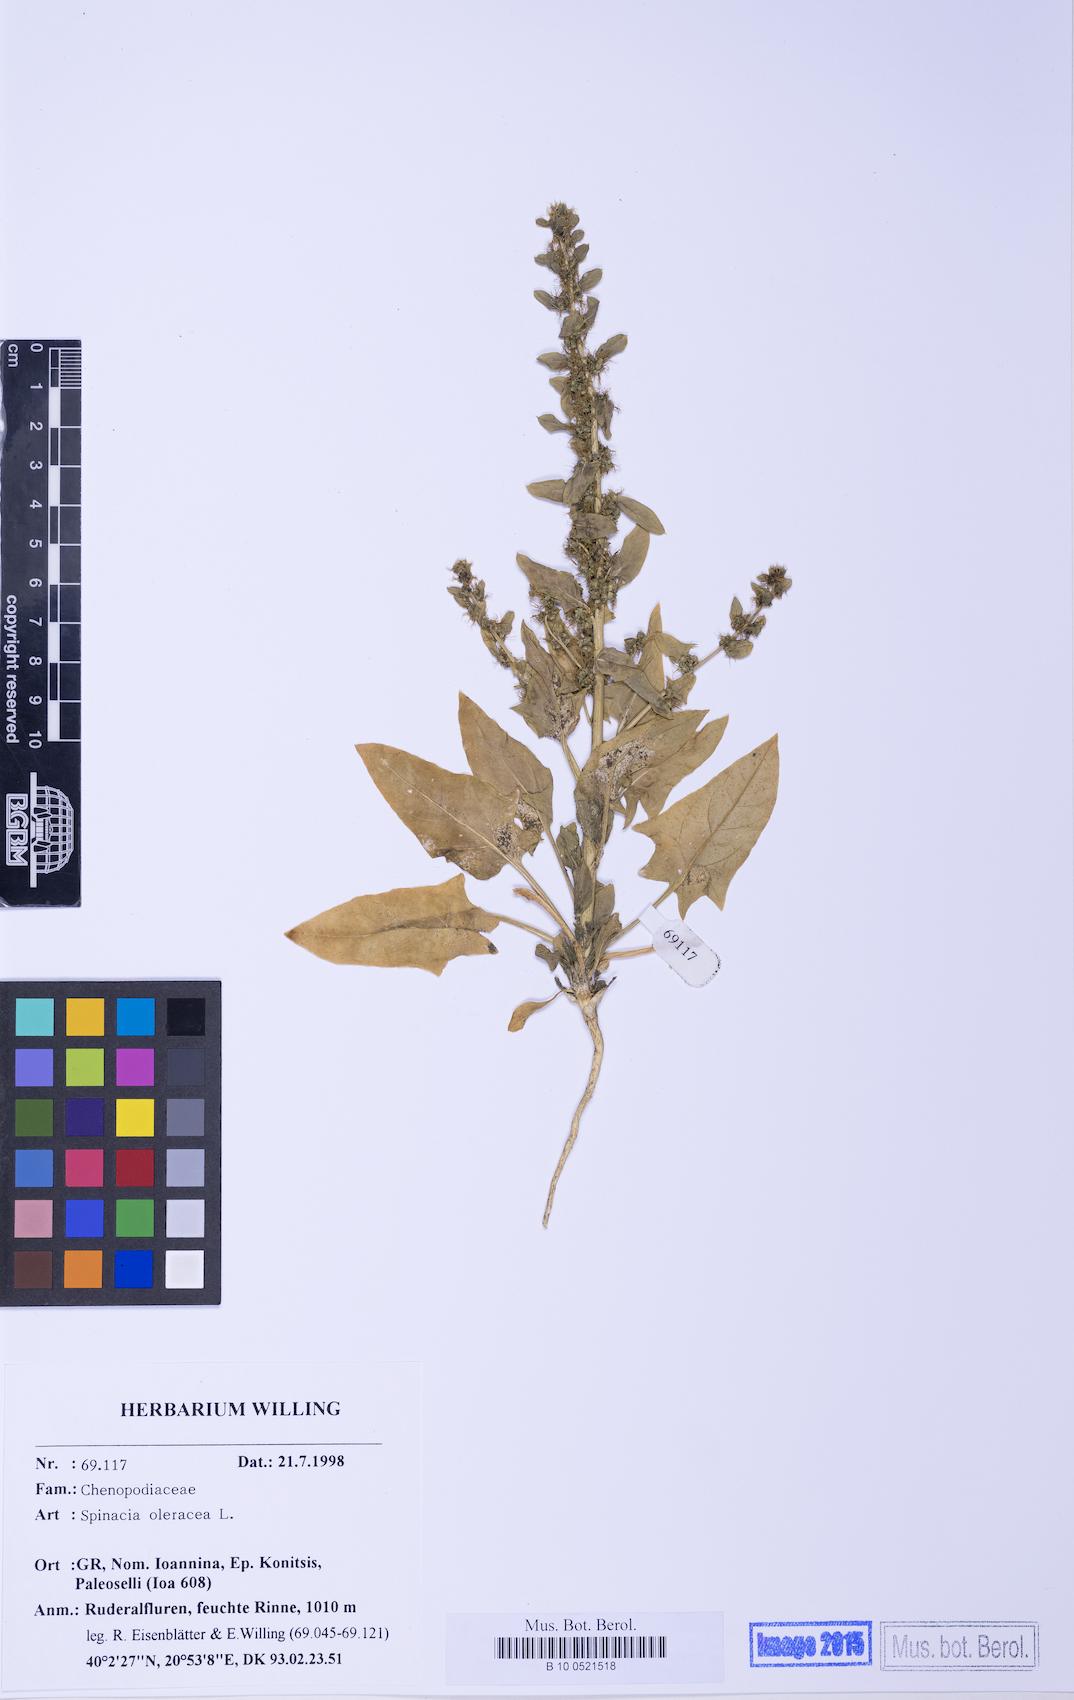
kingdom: Plantae
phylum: Tracheophyta
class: Magnoliopsida
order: Caryophyllales
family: Amaranthaceae
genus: Spinacia
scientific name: Spinacia oleracea
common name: Spinach
